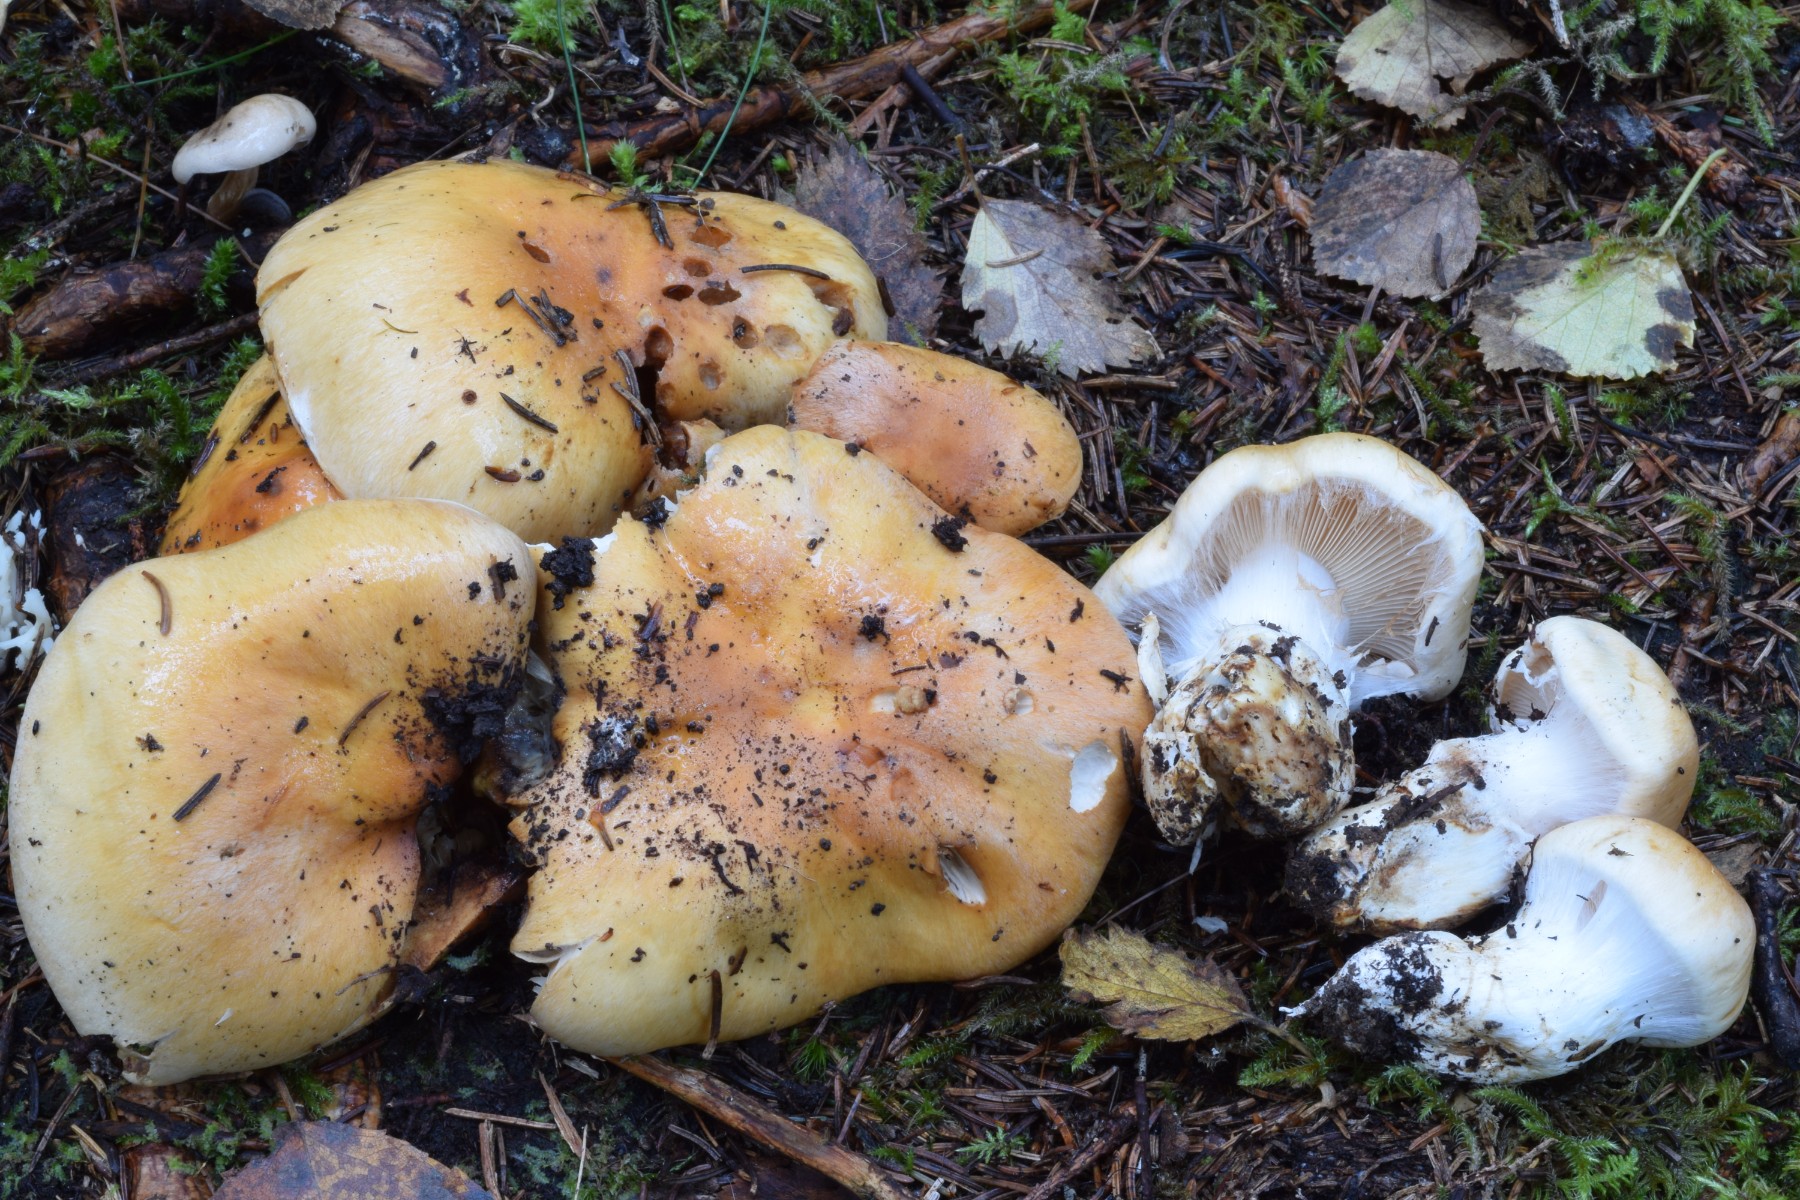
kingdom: Fungi
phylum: Basidiomycota
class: Agaricomycetes
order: Agaricales
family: Cortinariaceae
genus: Thaxterogaster
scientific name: Thaxterogaster turmalis
